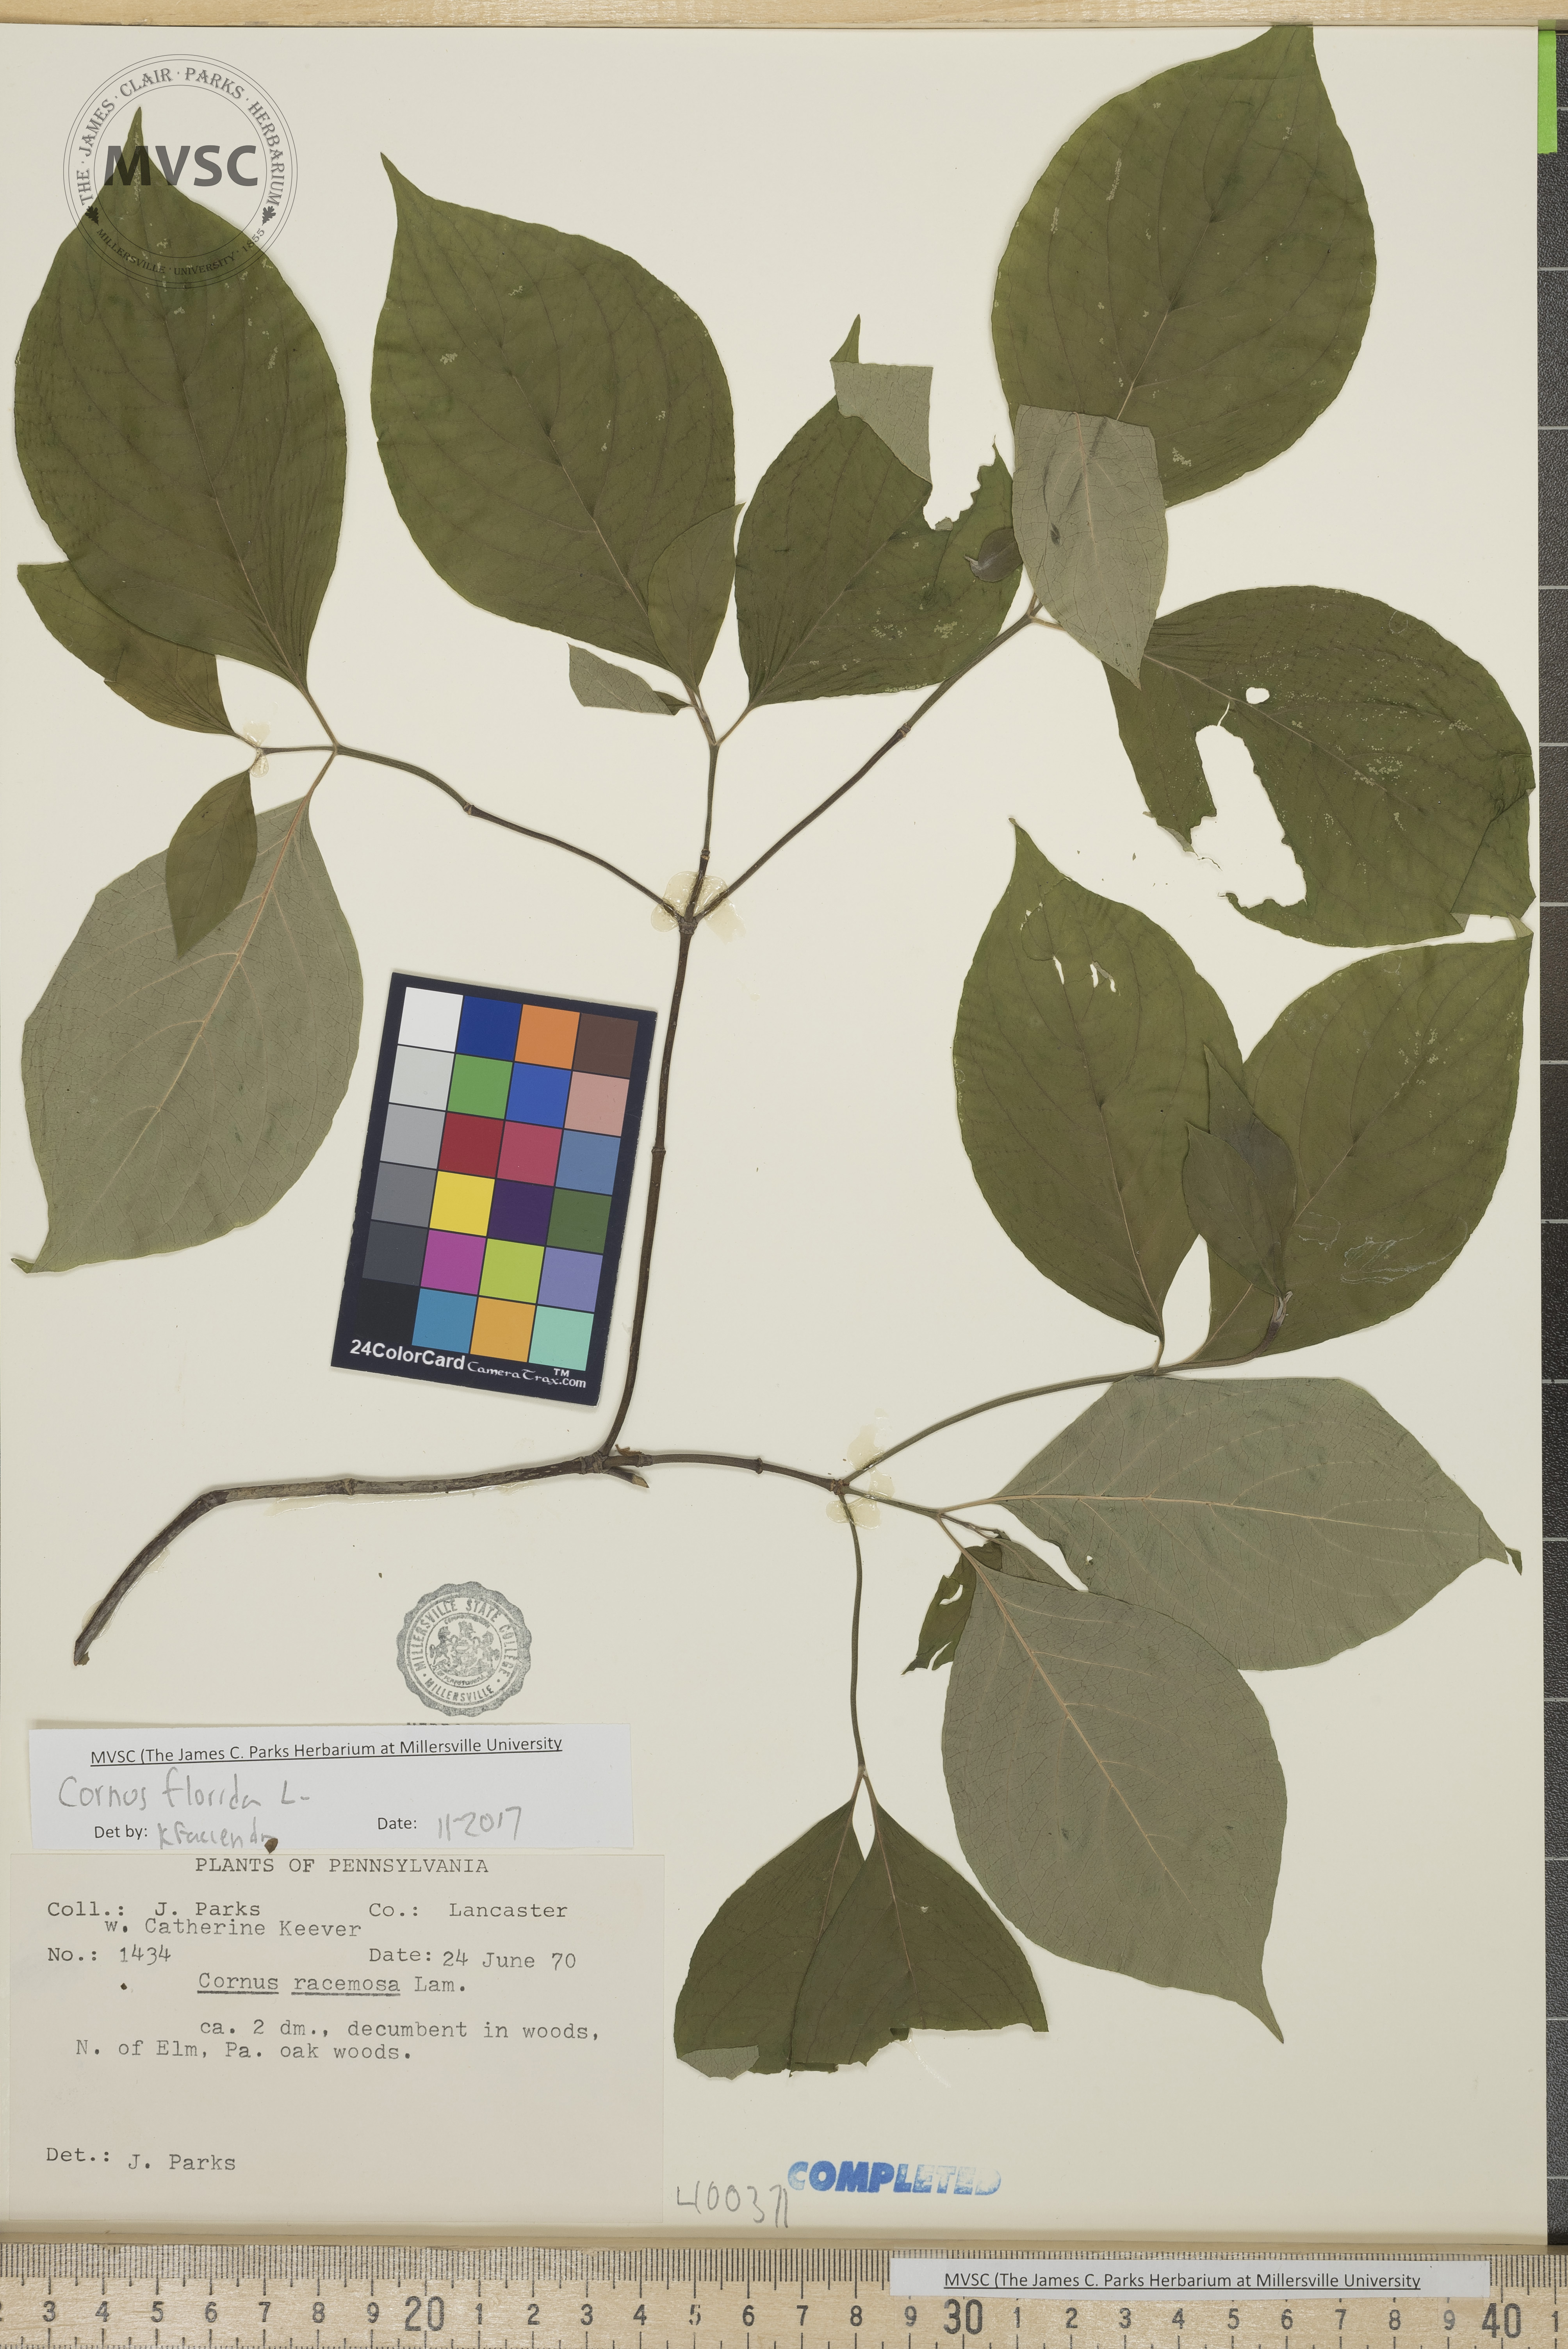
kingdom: Plantae
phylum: Tracheophyta
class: Magnoliopsida
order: Cornales
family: Cornaceae
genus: Cornus
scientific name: Cornus florida
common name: Flowering dogwood
